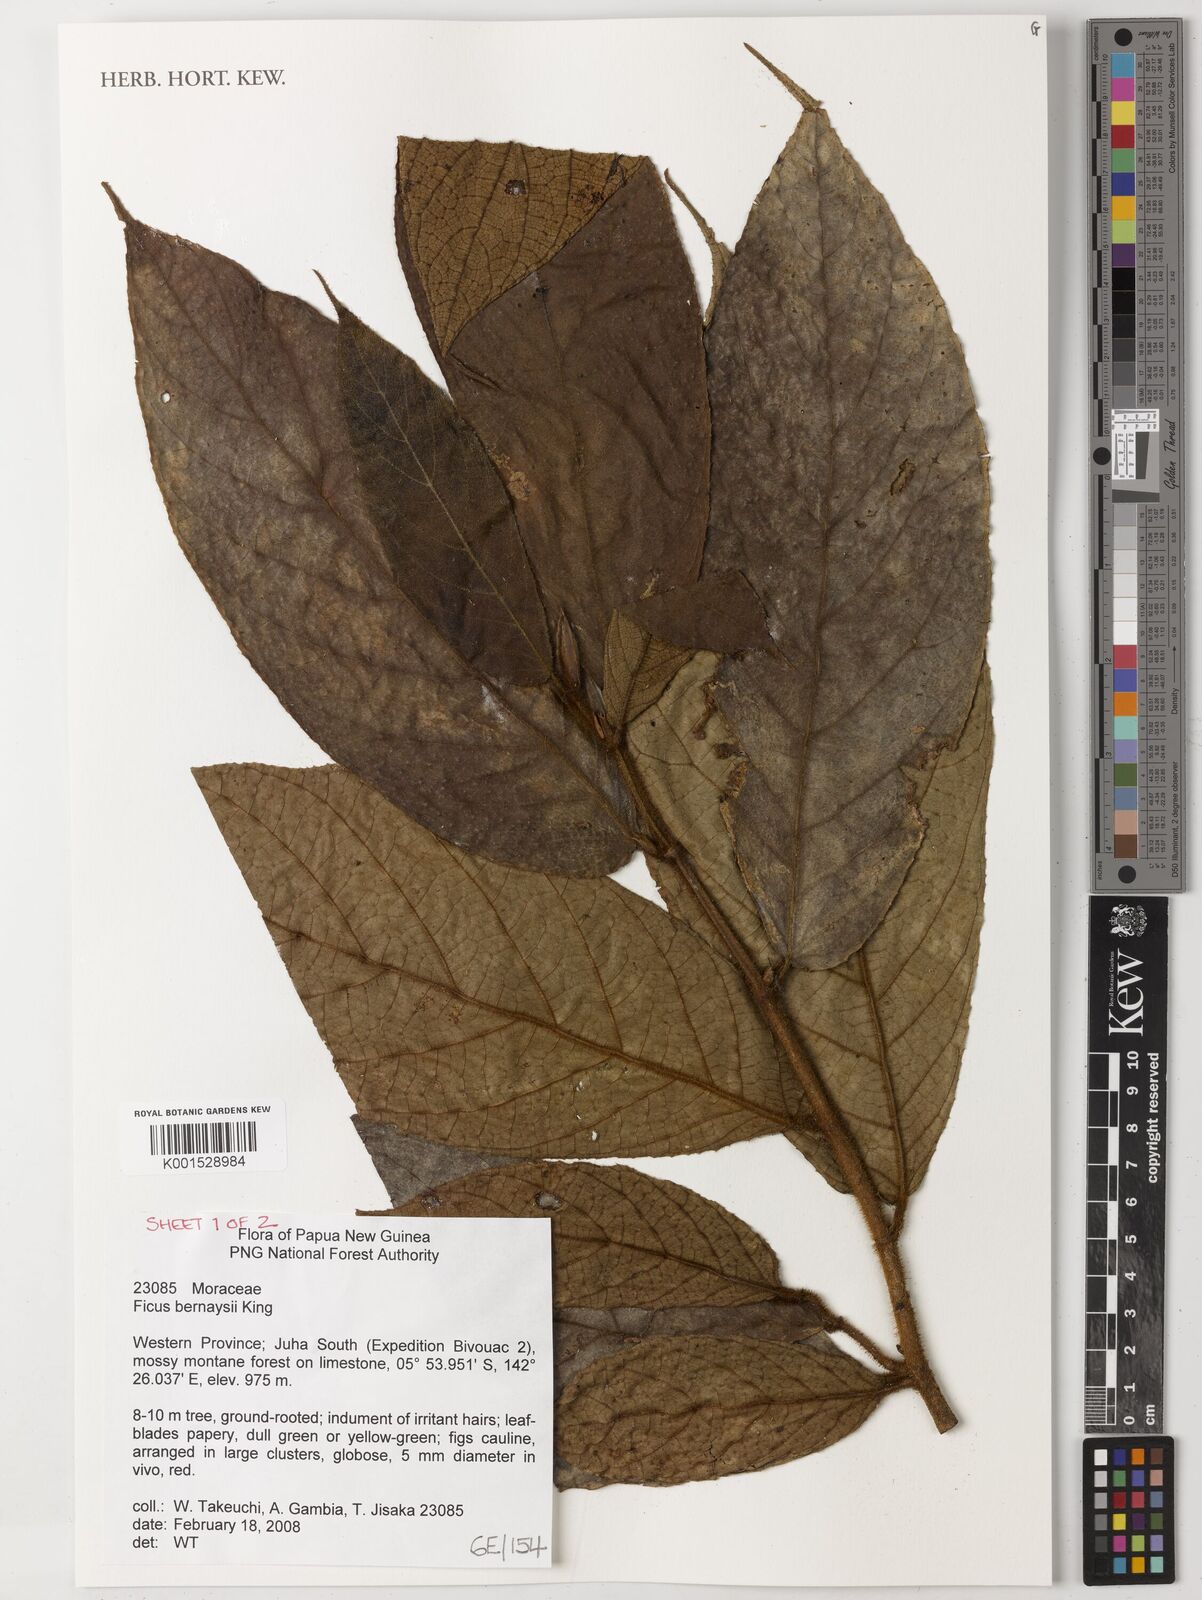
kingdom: Plantae
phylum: Tracheophyta
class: Magnoliopsida
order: Rosales
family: Moraceae
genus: Ficus
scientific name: Ficus bernaysii
